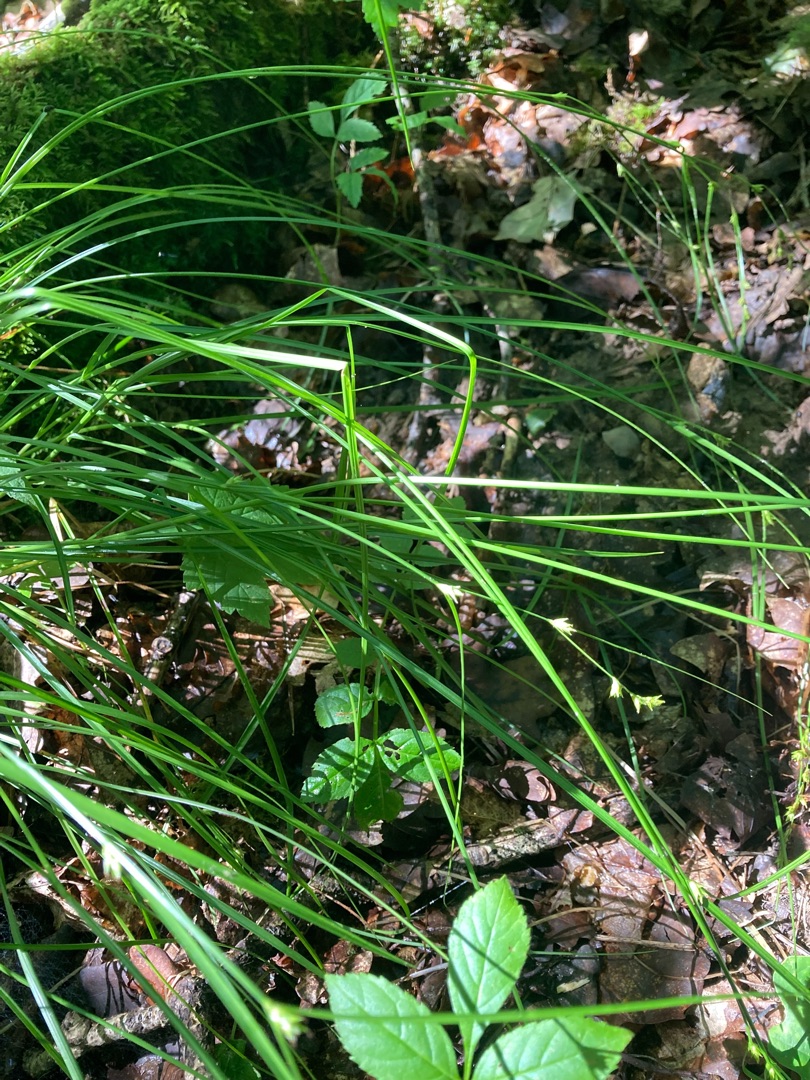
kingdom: Plantae
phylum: Tracheophyta
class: Liliopsida
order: Poales
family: Cyperaceae
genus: Carex
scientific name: Carex remota
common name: Akselblomstret star
